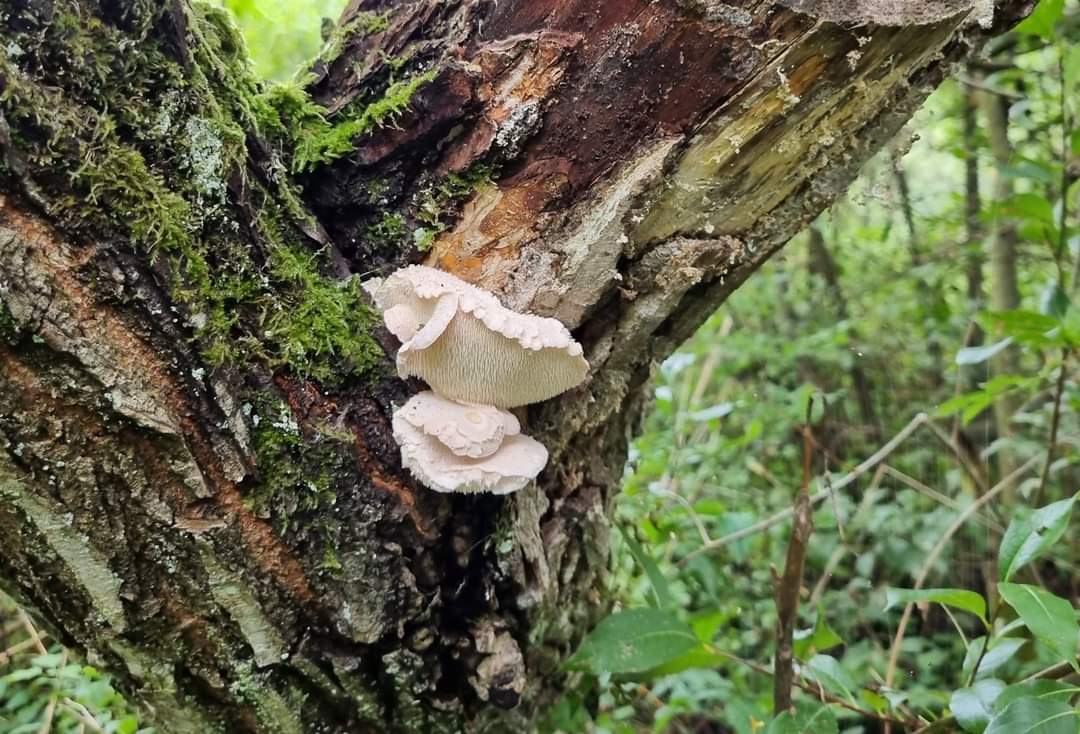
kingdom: Fungi
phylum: Basidiomycota
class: Agaricomycetes
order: Russulales
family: Hericiaceae
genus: Hericium
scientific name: Hericium cirrhatum
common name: børstepigsvamp
